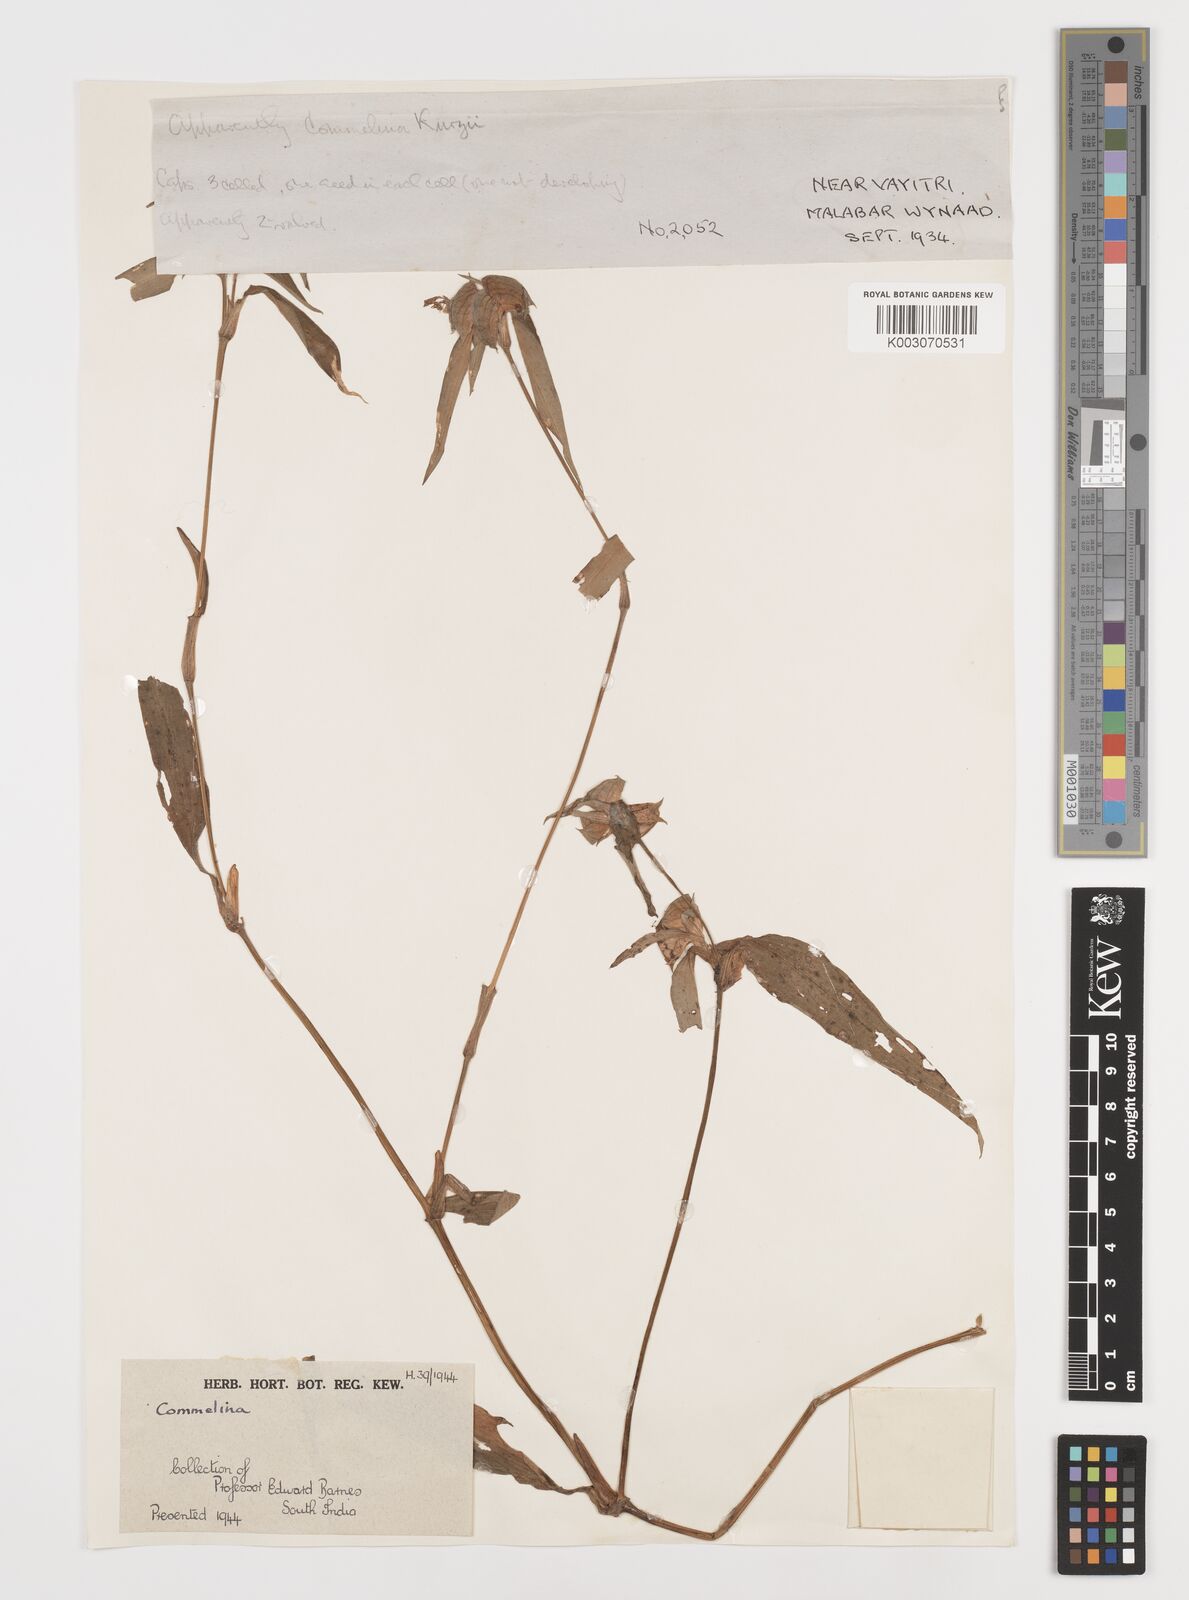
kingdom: Plantae
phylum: Tracheophyta
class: Liliopsida
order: Commelinales
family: Commelinaceae
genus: Commelina
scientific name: Commelina
